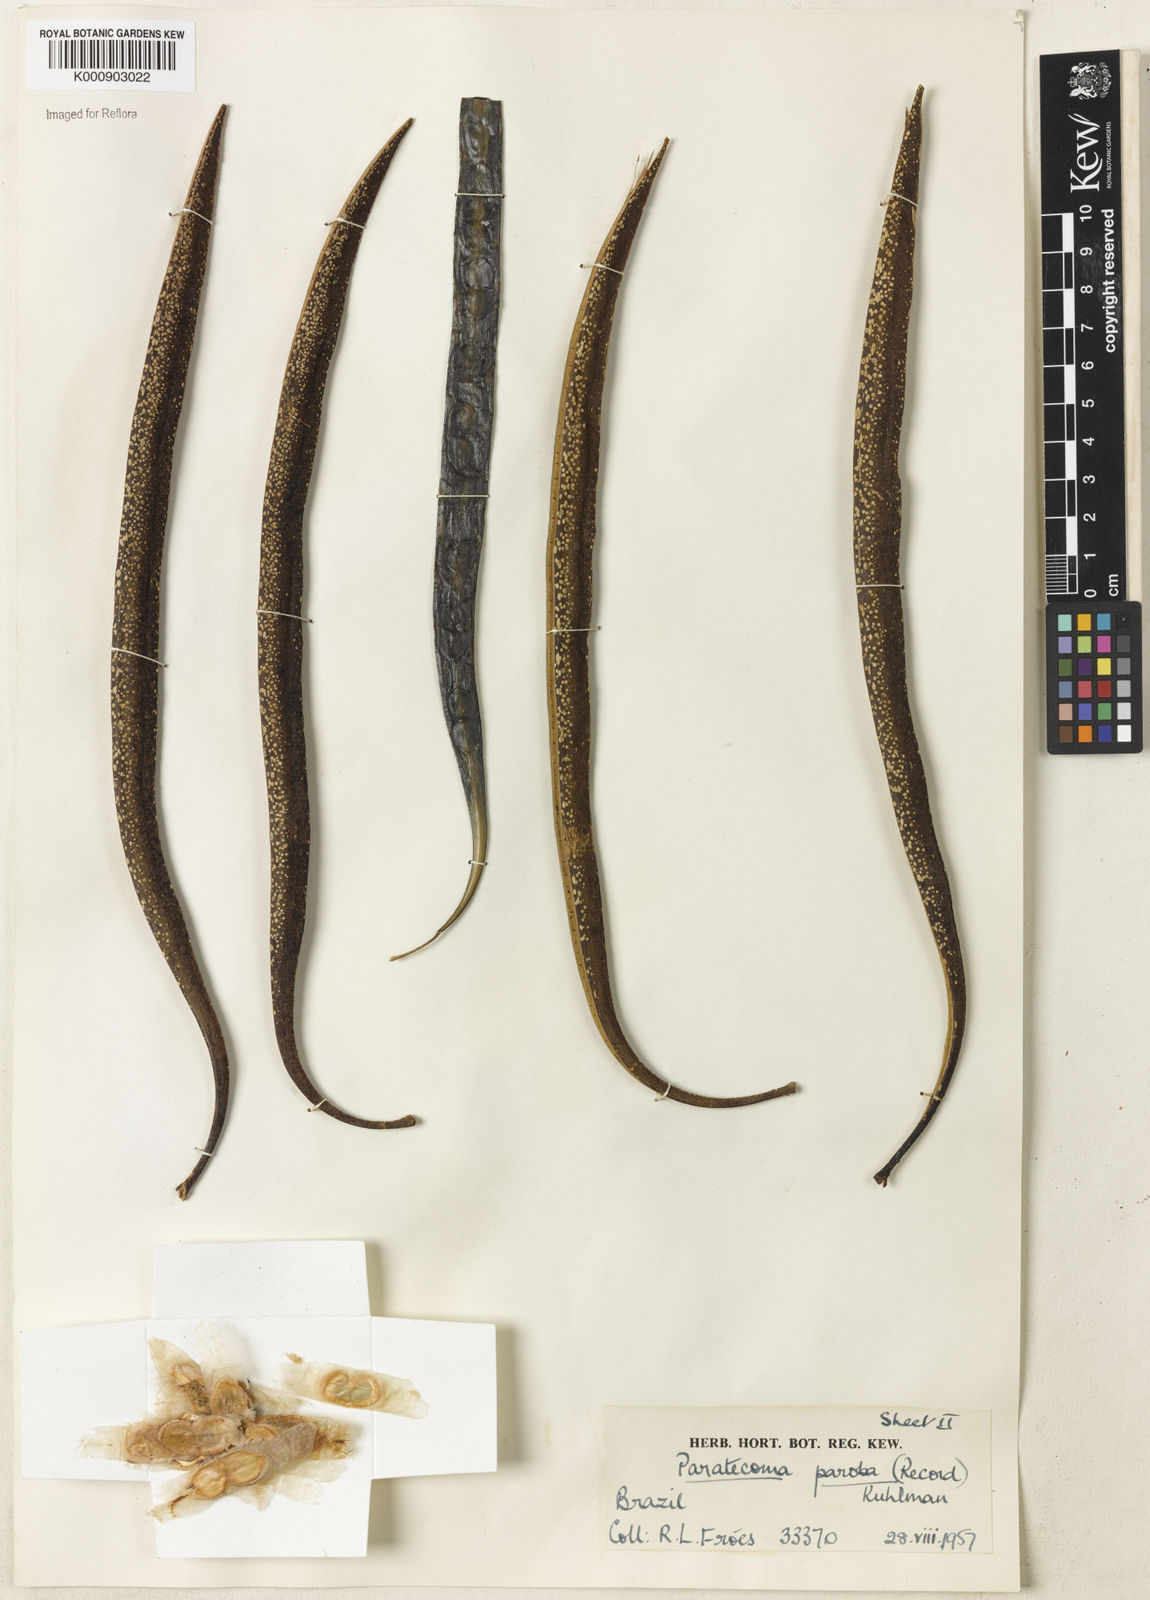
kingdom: Plantae
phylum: Tracheophyta
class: Magnoliopsida
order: Lamiales
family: Bignoniaceae
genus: Paratecoma
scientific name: Paratecoma peroba
